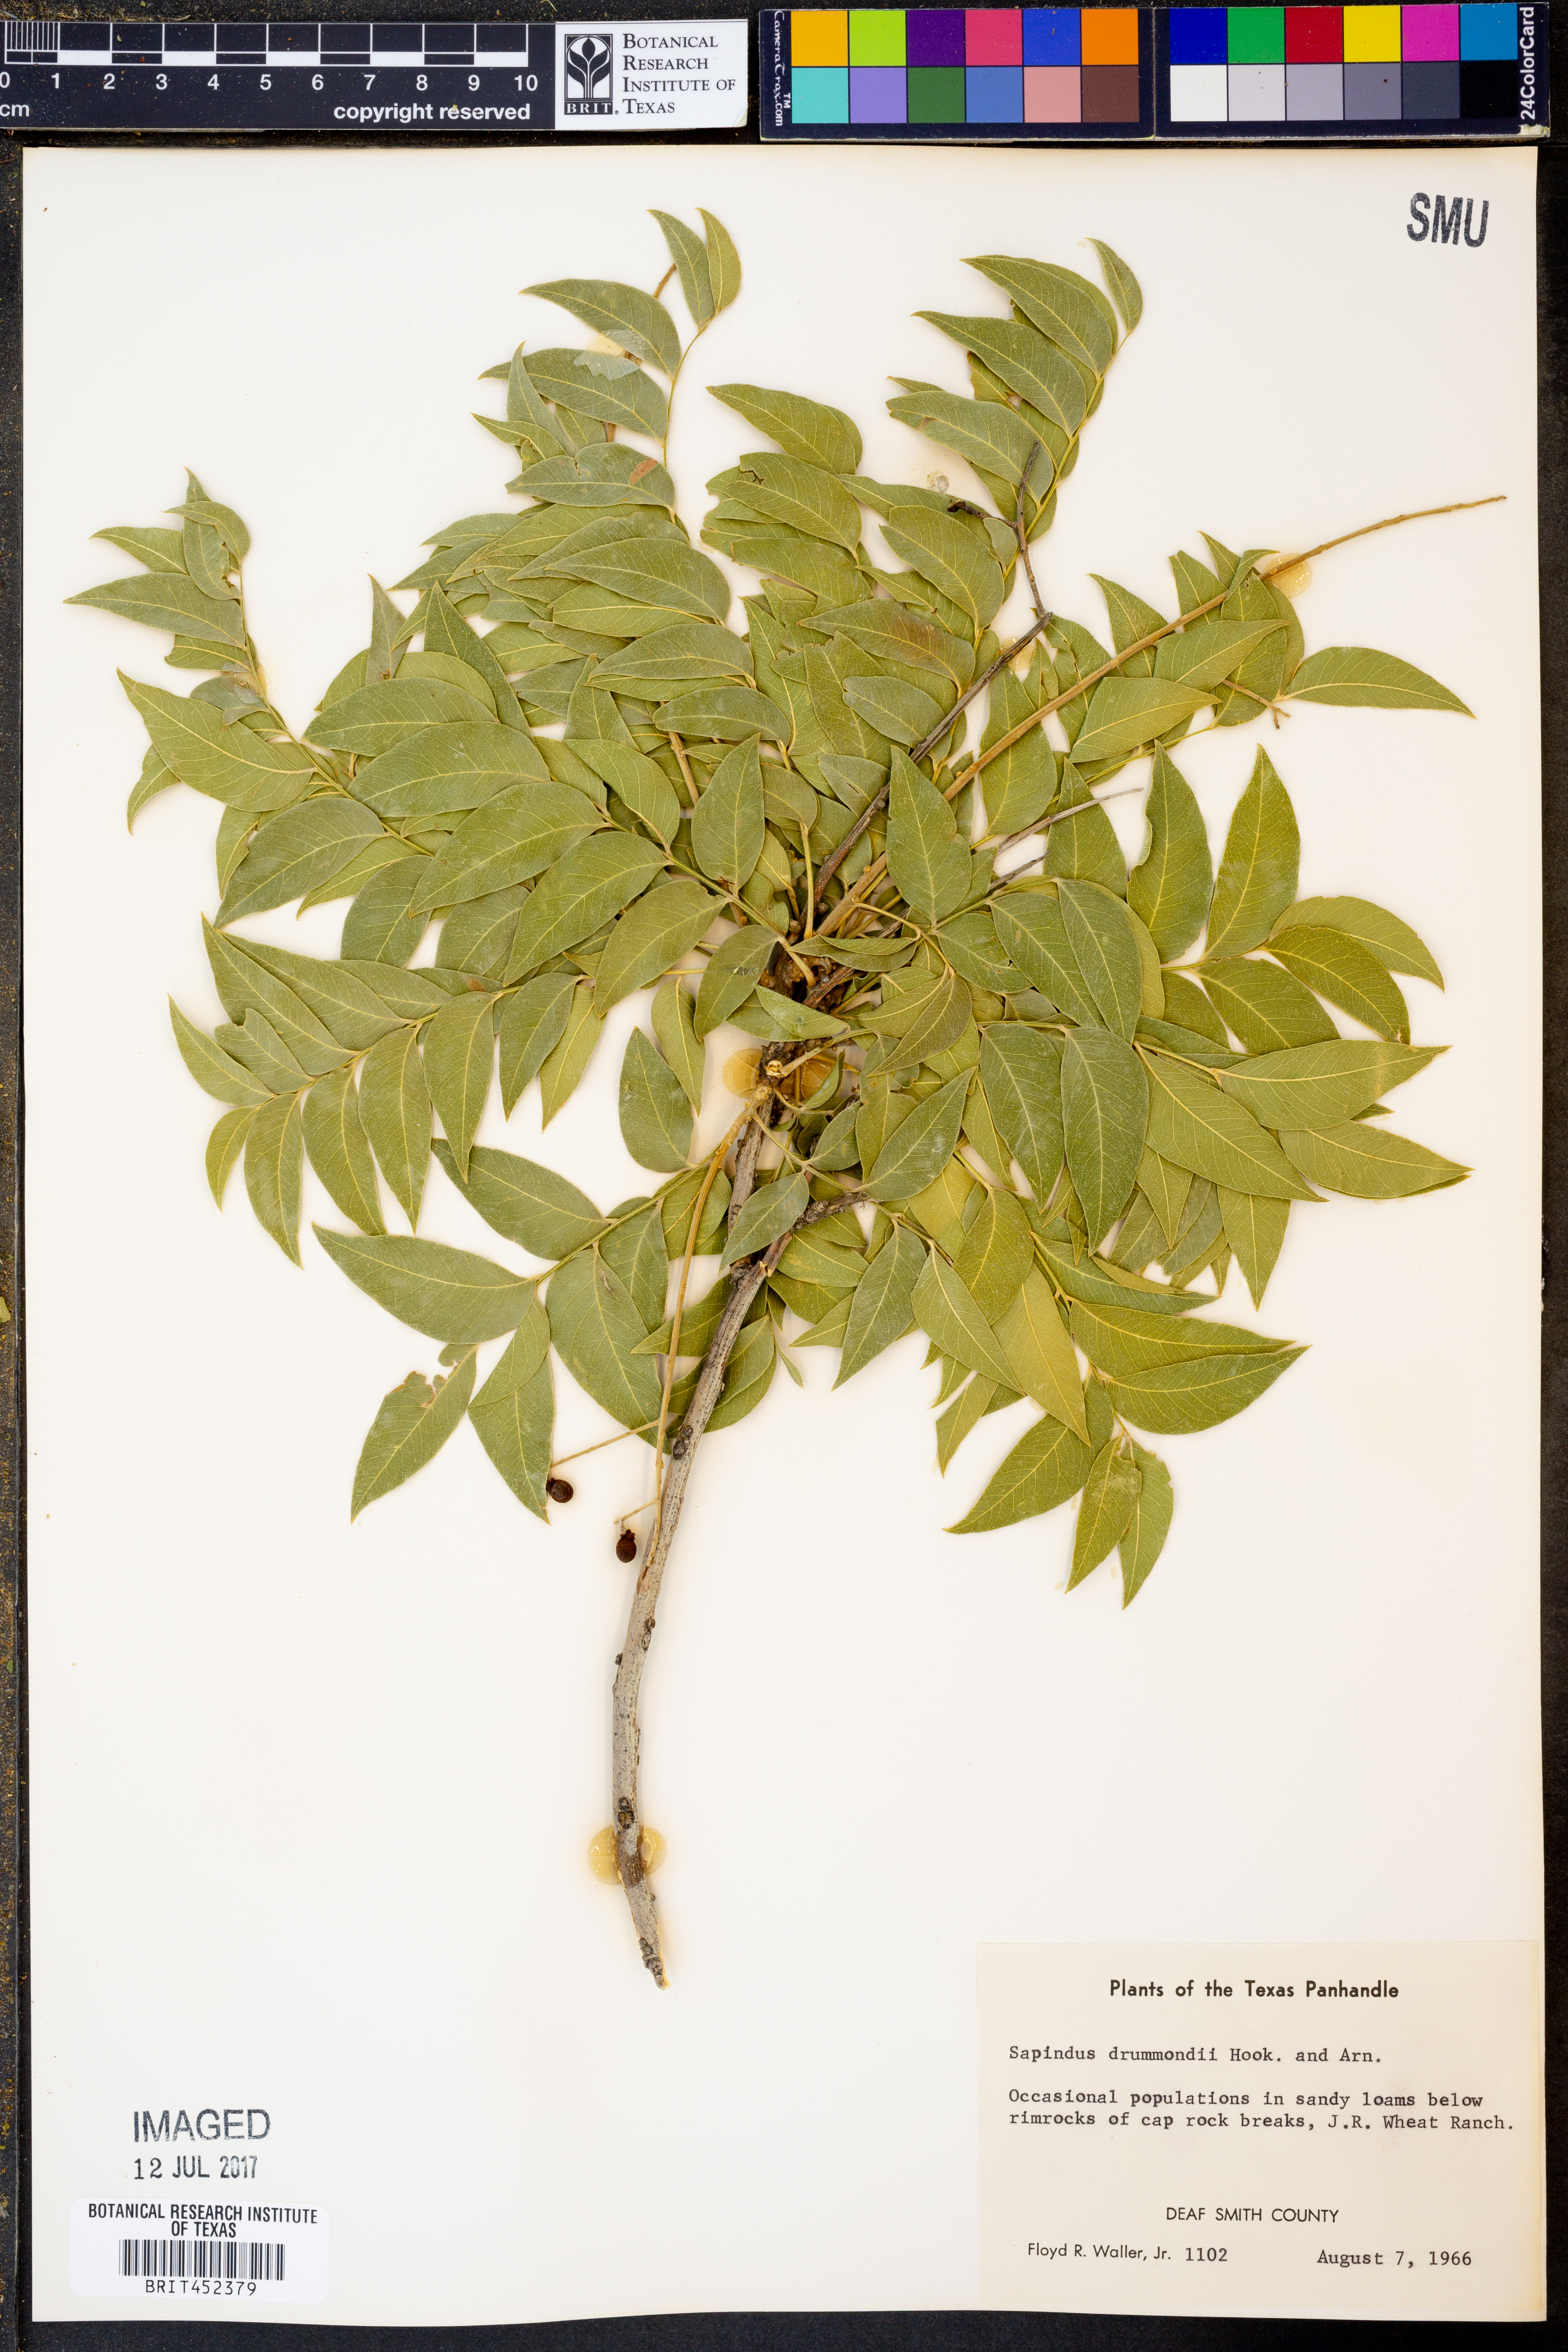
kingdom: Plantae
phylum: Tracheophyta
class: Magnoliopsida
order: Sapindales
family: Sapindaceae
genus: Sapindus
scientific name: Sapindus drummondii
